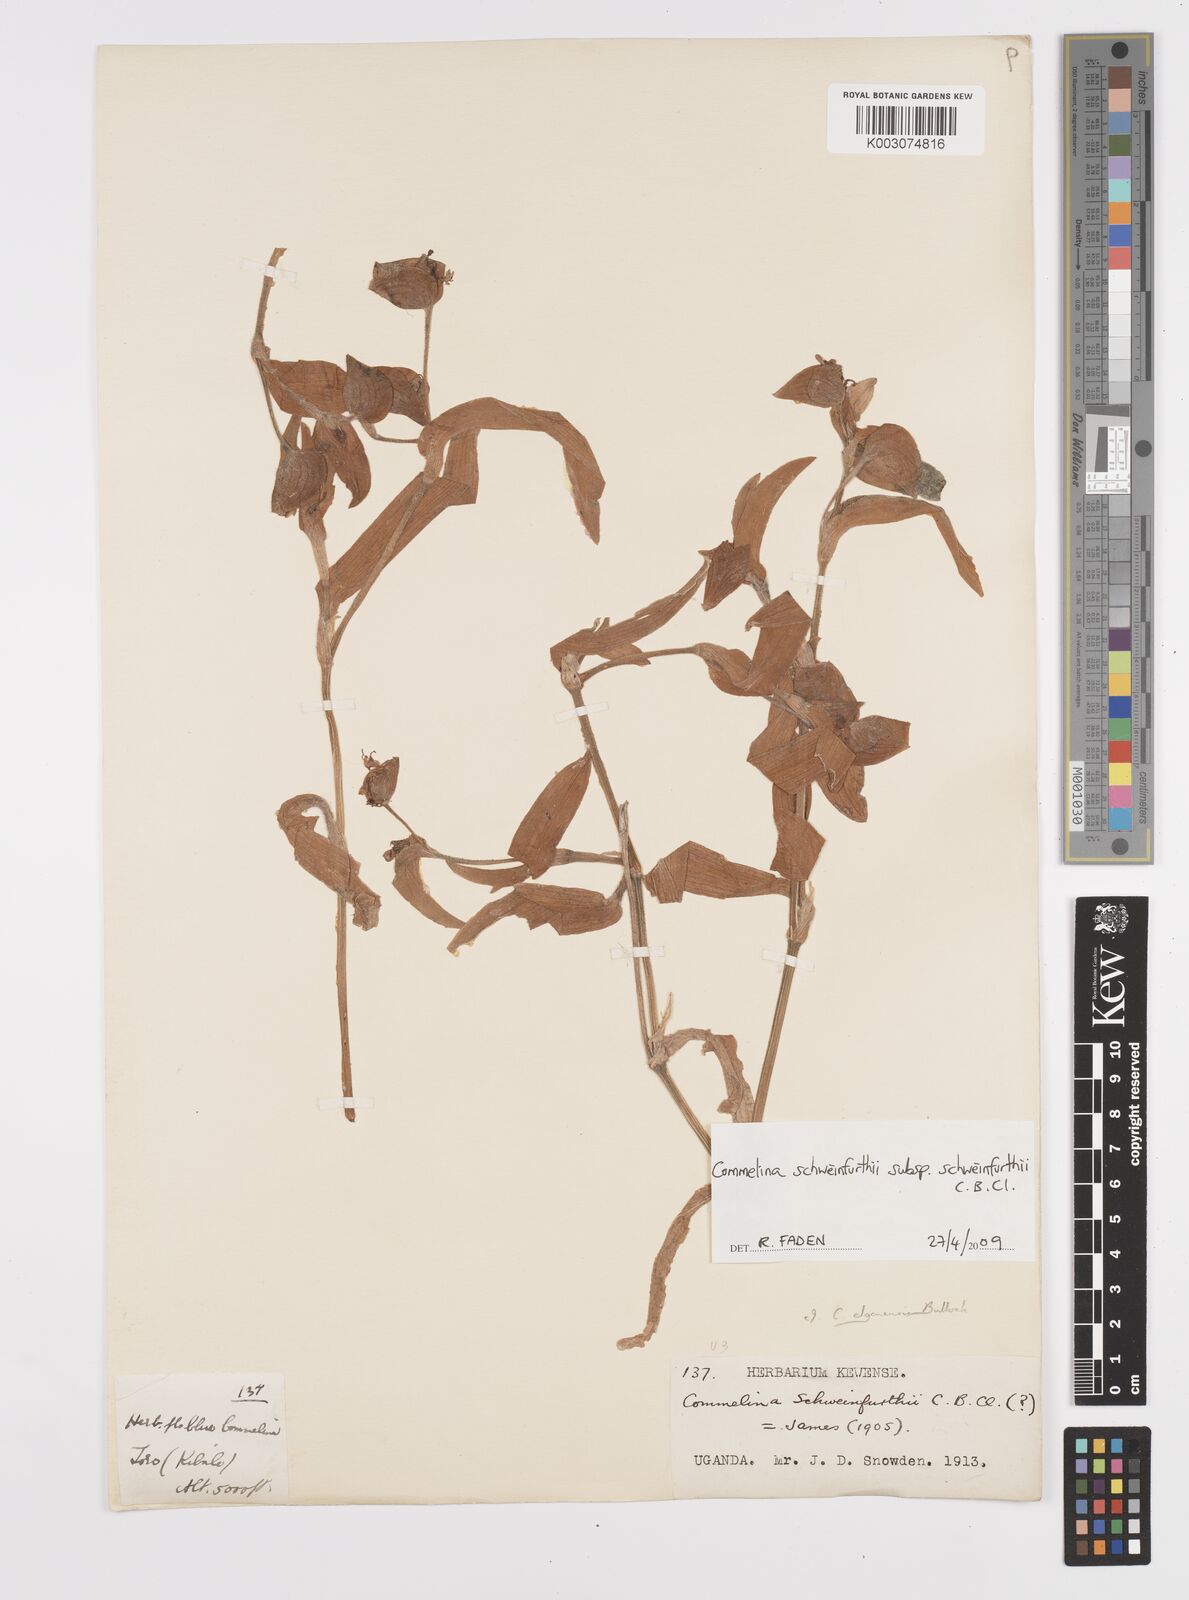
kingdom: Plantae
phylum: Tracheophyta
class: Liliopsida
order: Commelinales
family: Commelinaceae
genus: Commelina
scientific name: Commelina schweinfurthii
